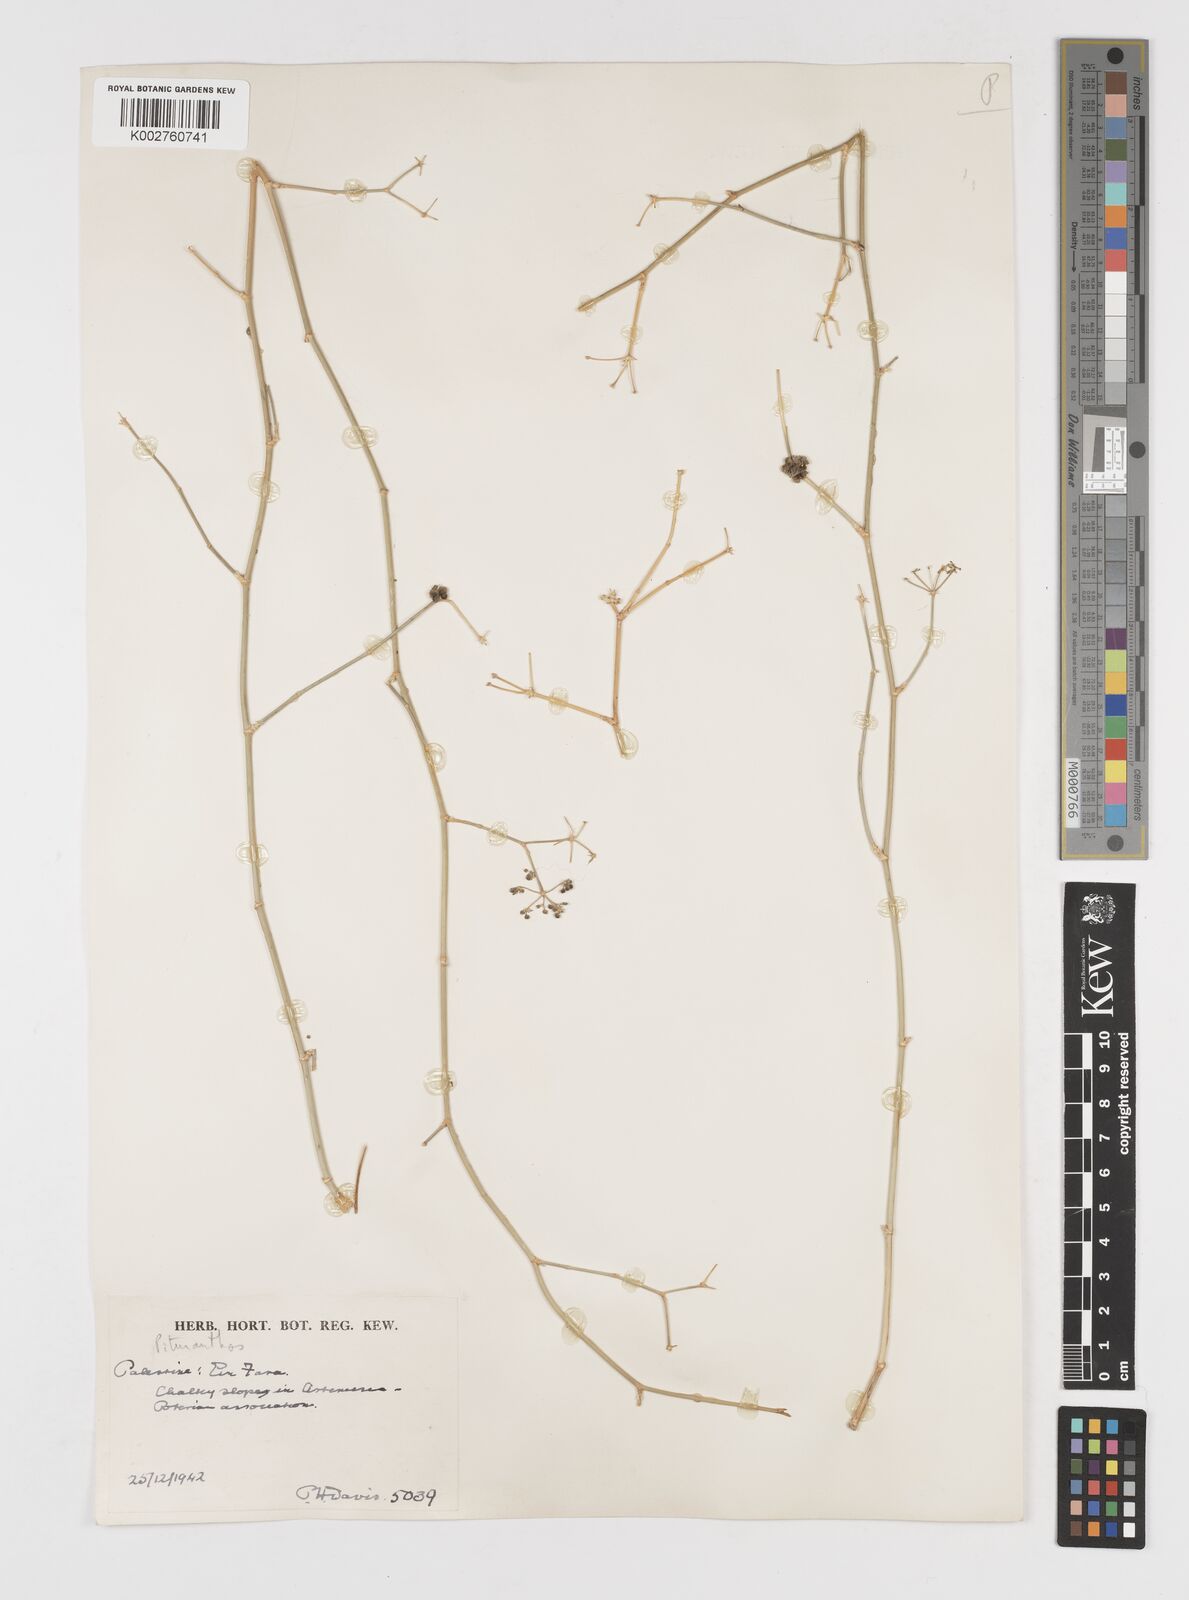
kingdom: Plantae
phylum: Tracheophyta
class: Magnoliopsida
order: Apiales
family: Apiaceae
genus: Deverra
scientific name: Deverra tortuosa
